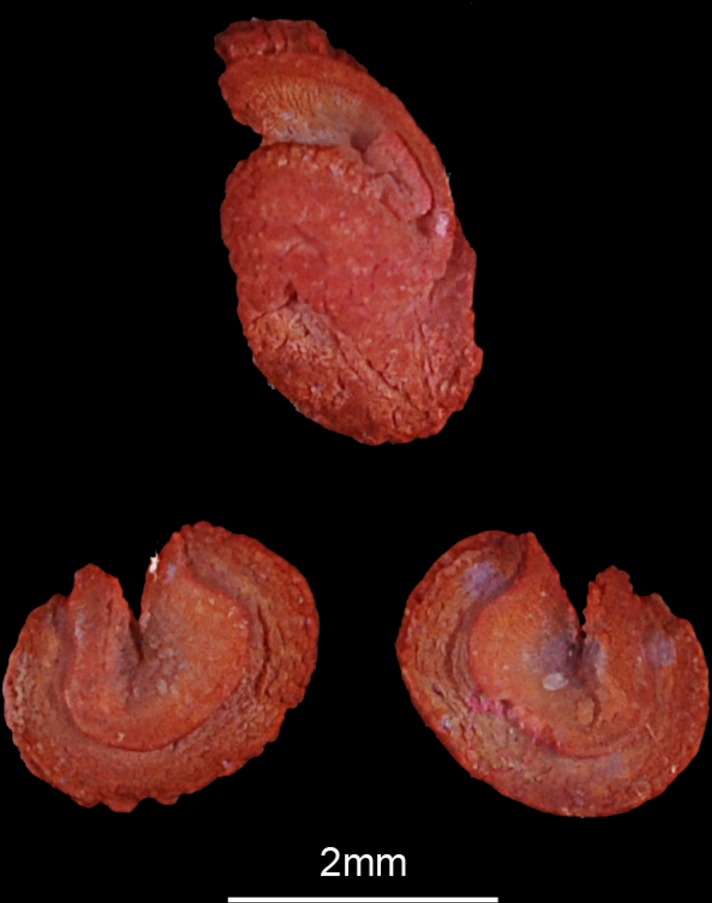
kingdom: Animalia
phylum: Chordata
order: Siluriformes
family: Mochokidae
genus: Synodontis
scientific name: Synodontis schall
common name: Wahrindi
